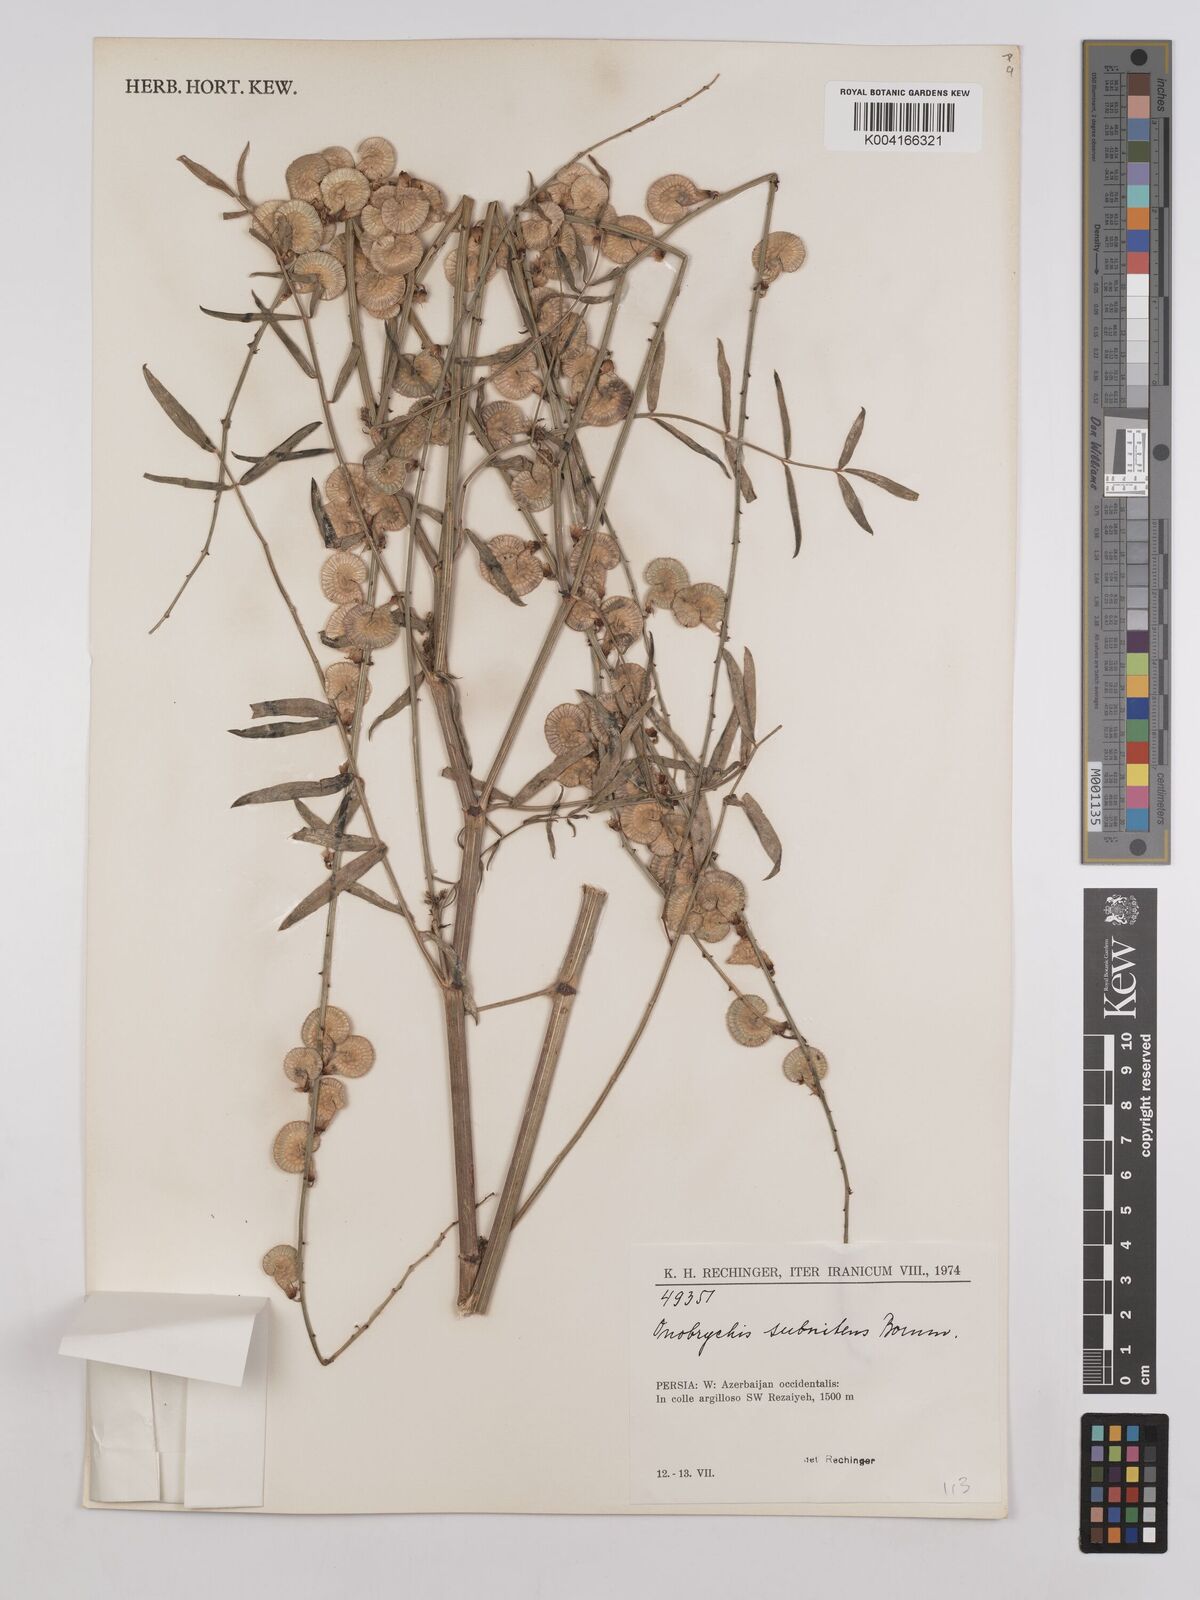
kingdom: Plantae
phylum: Tracheophyta
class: Magnoliopsida
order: Fabales
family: Fabaceae
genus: Onobrychis
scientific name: Onobrychis subnitens
